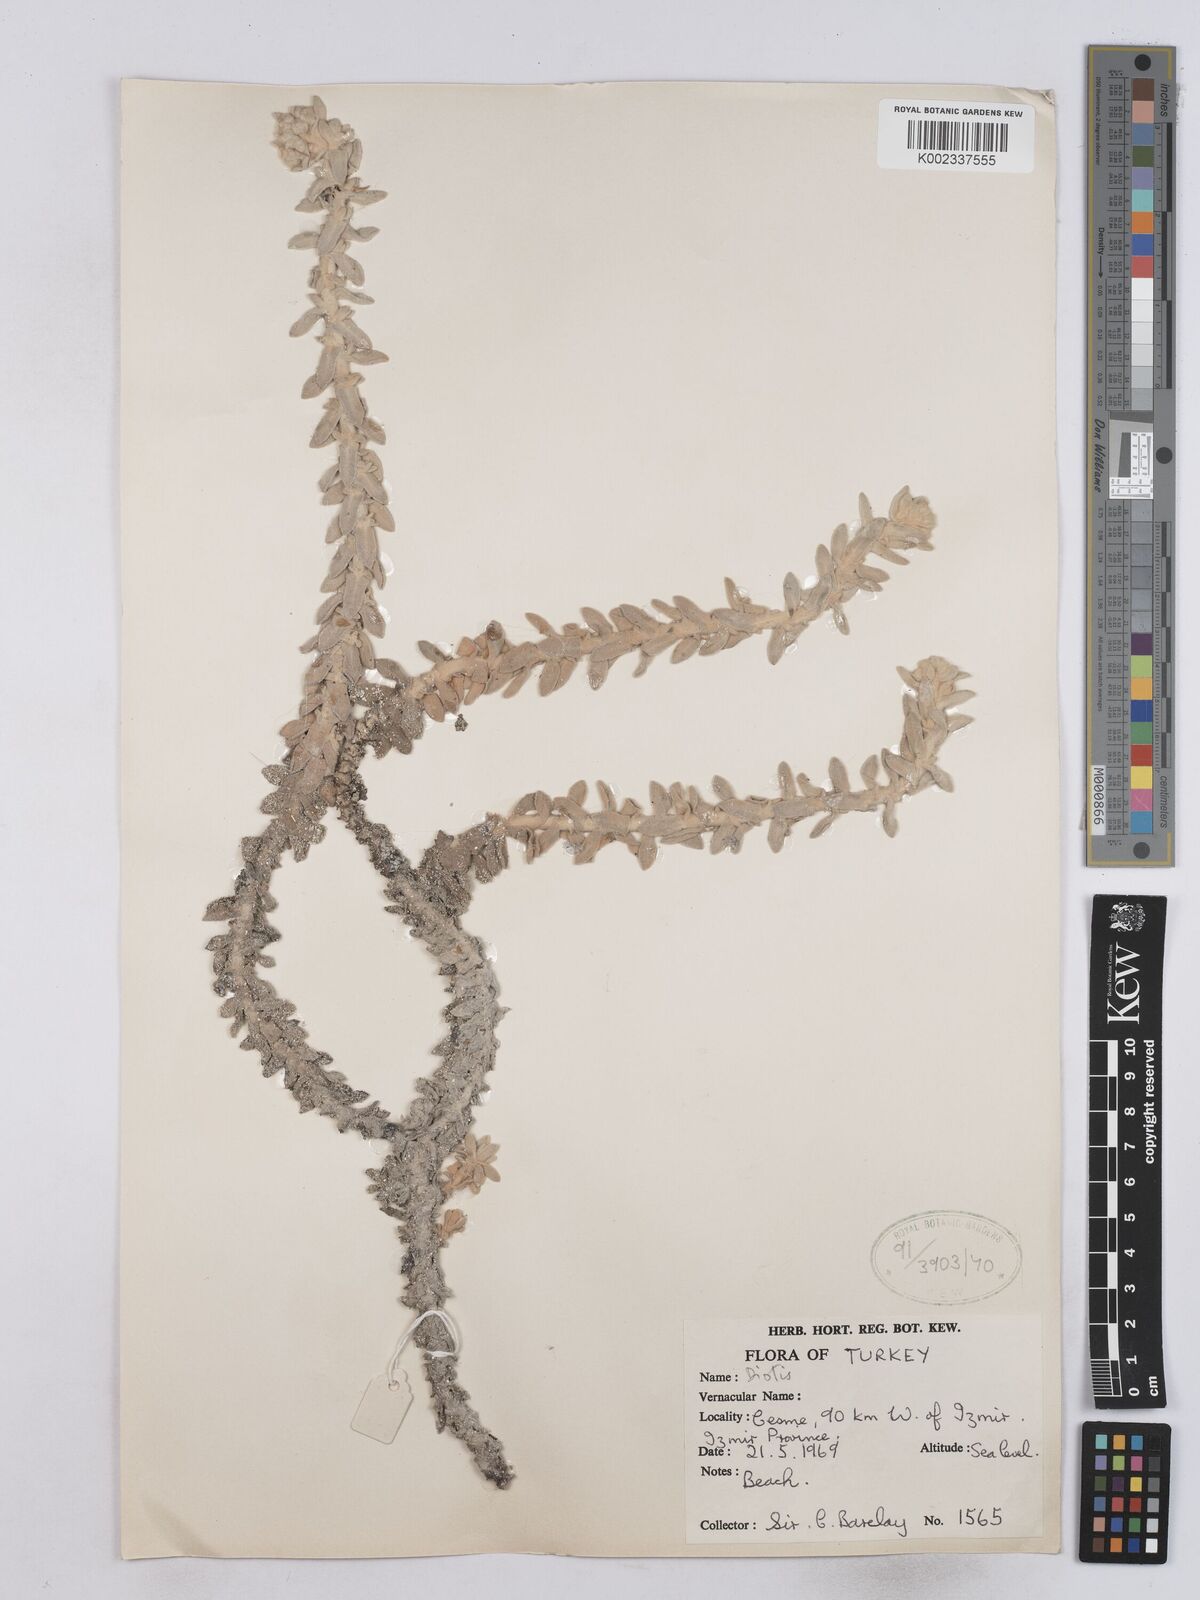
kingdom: Plantae
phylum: Tracheophyta
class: Magnoliopsida
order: Asterales
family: Asteraceae
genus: Achillea
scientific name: Achillea maritima
